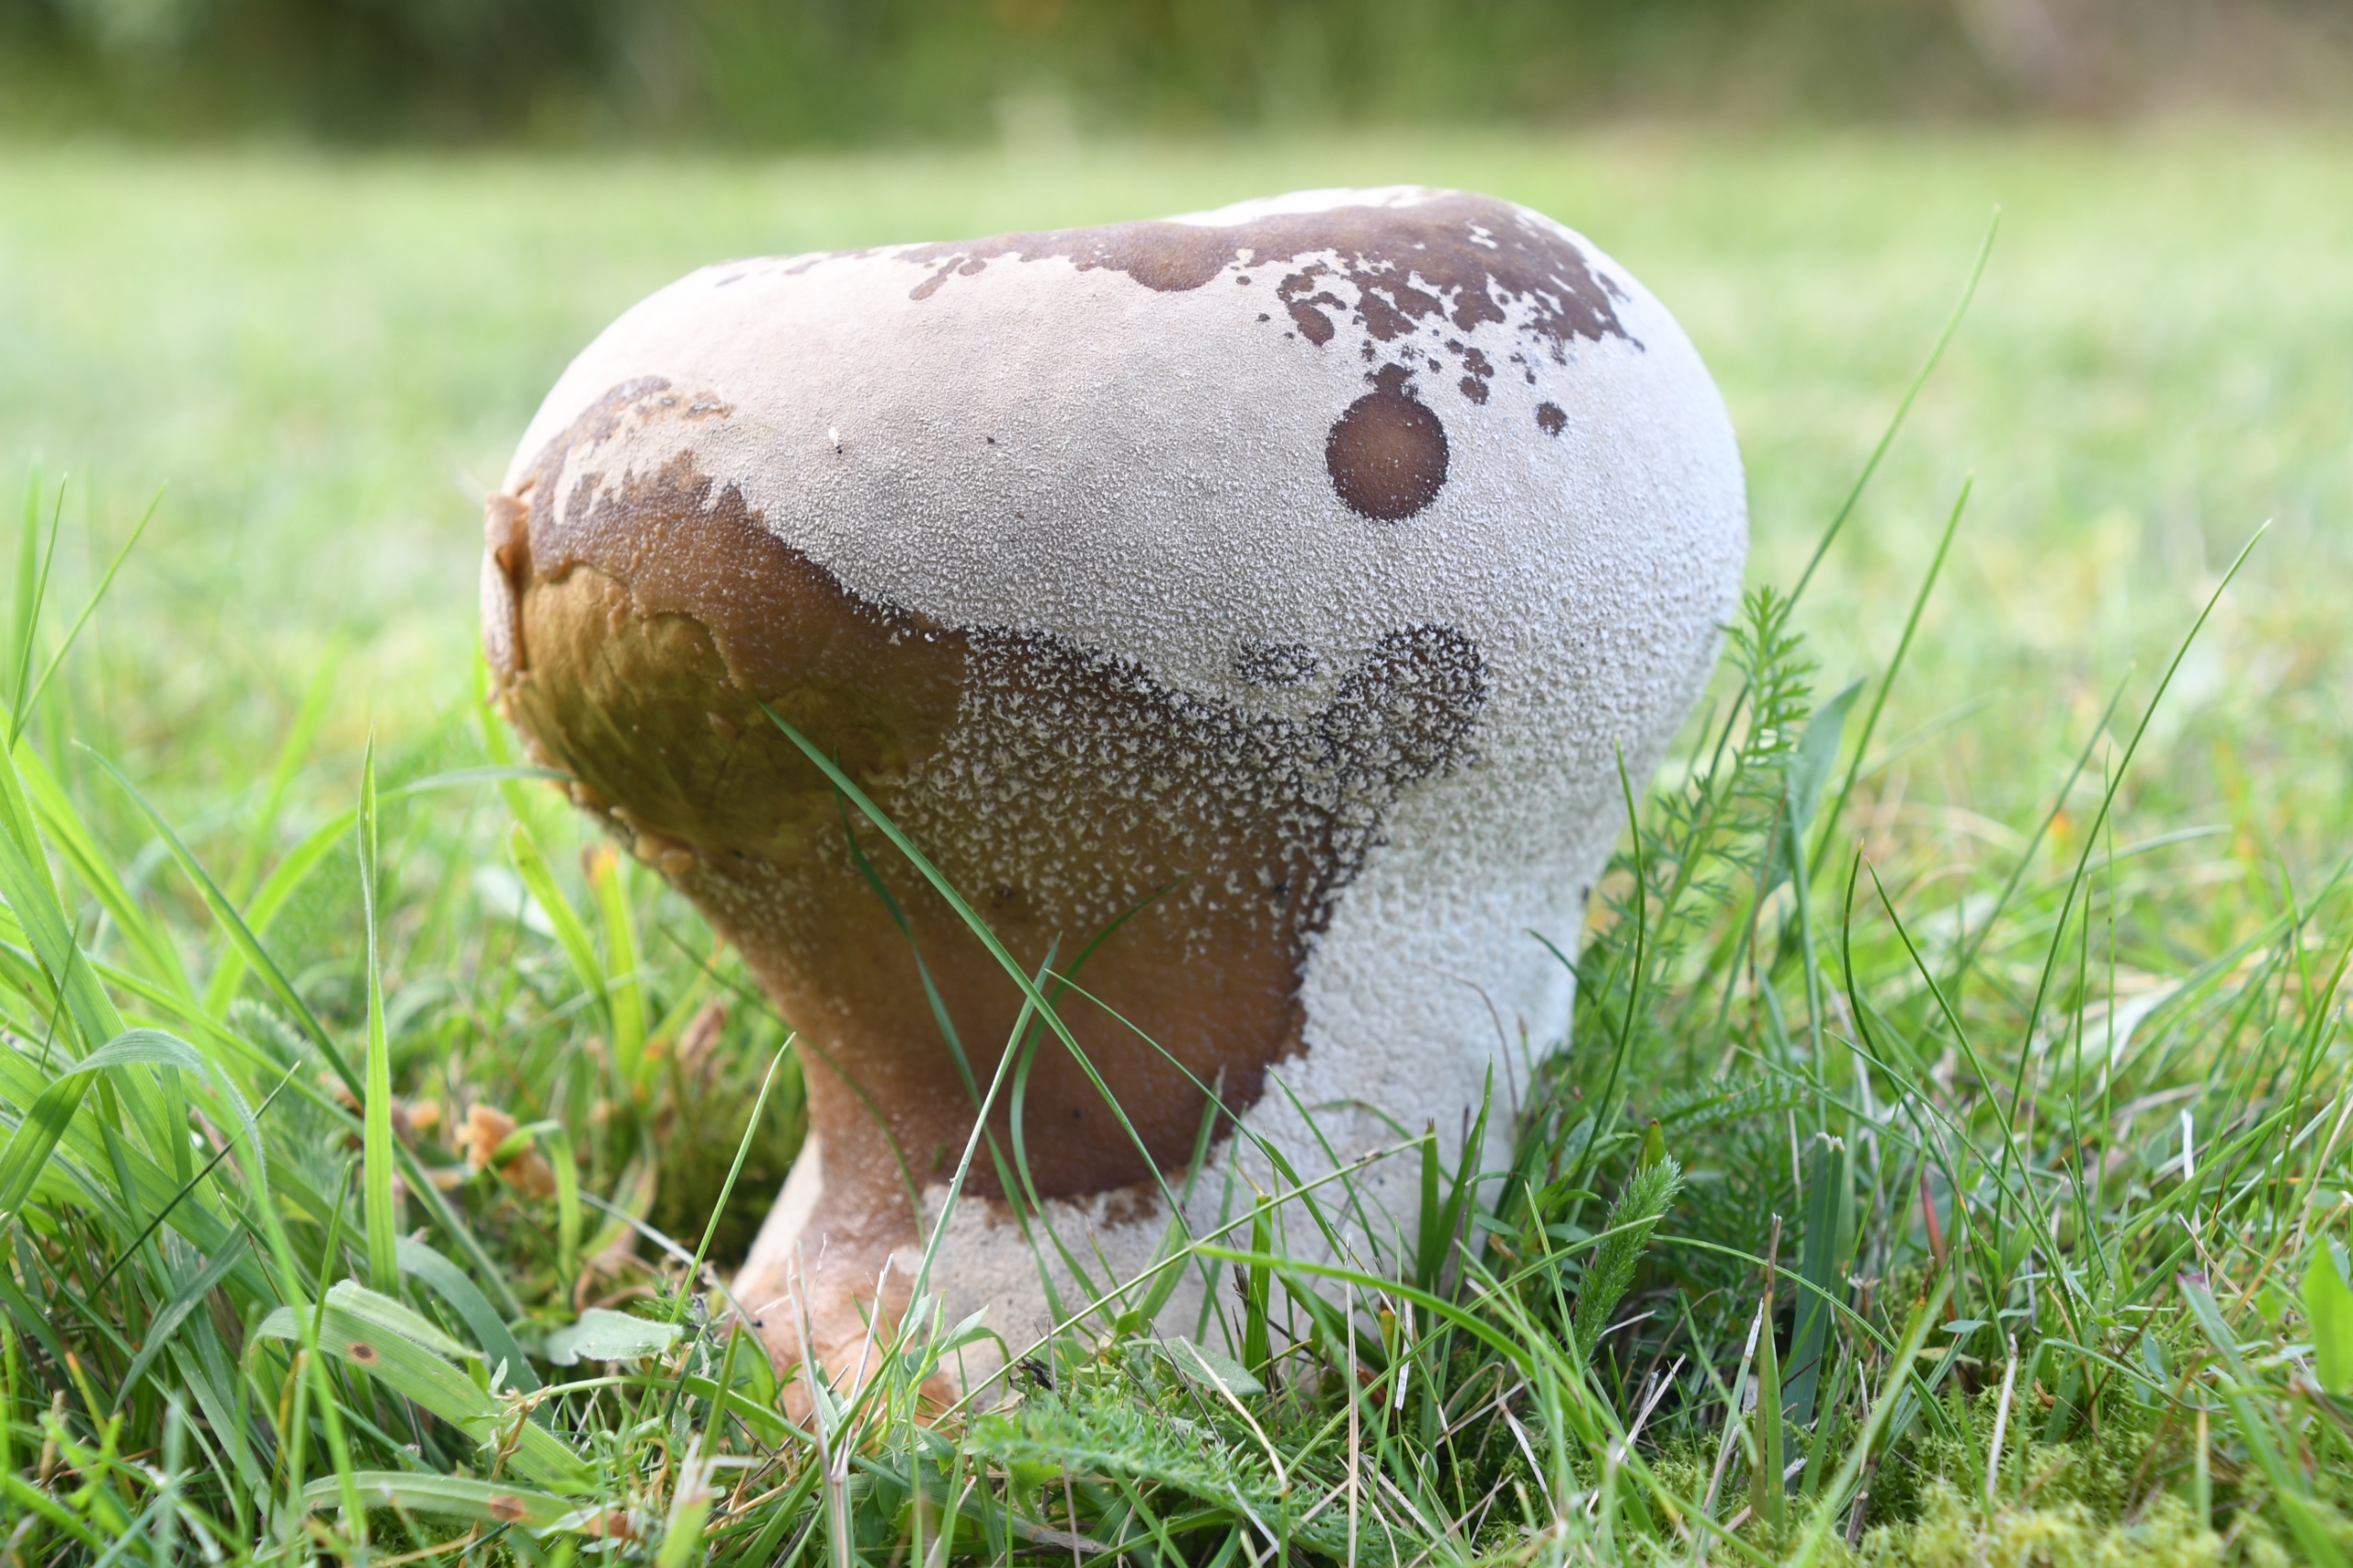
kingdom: Fungi
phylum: Basidiomycota
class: Agaricomycetes
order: Agaricales
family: Lycoperdaceae
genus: Bovistella
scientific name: Bovistella utriformis
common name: Skællet støvbold
